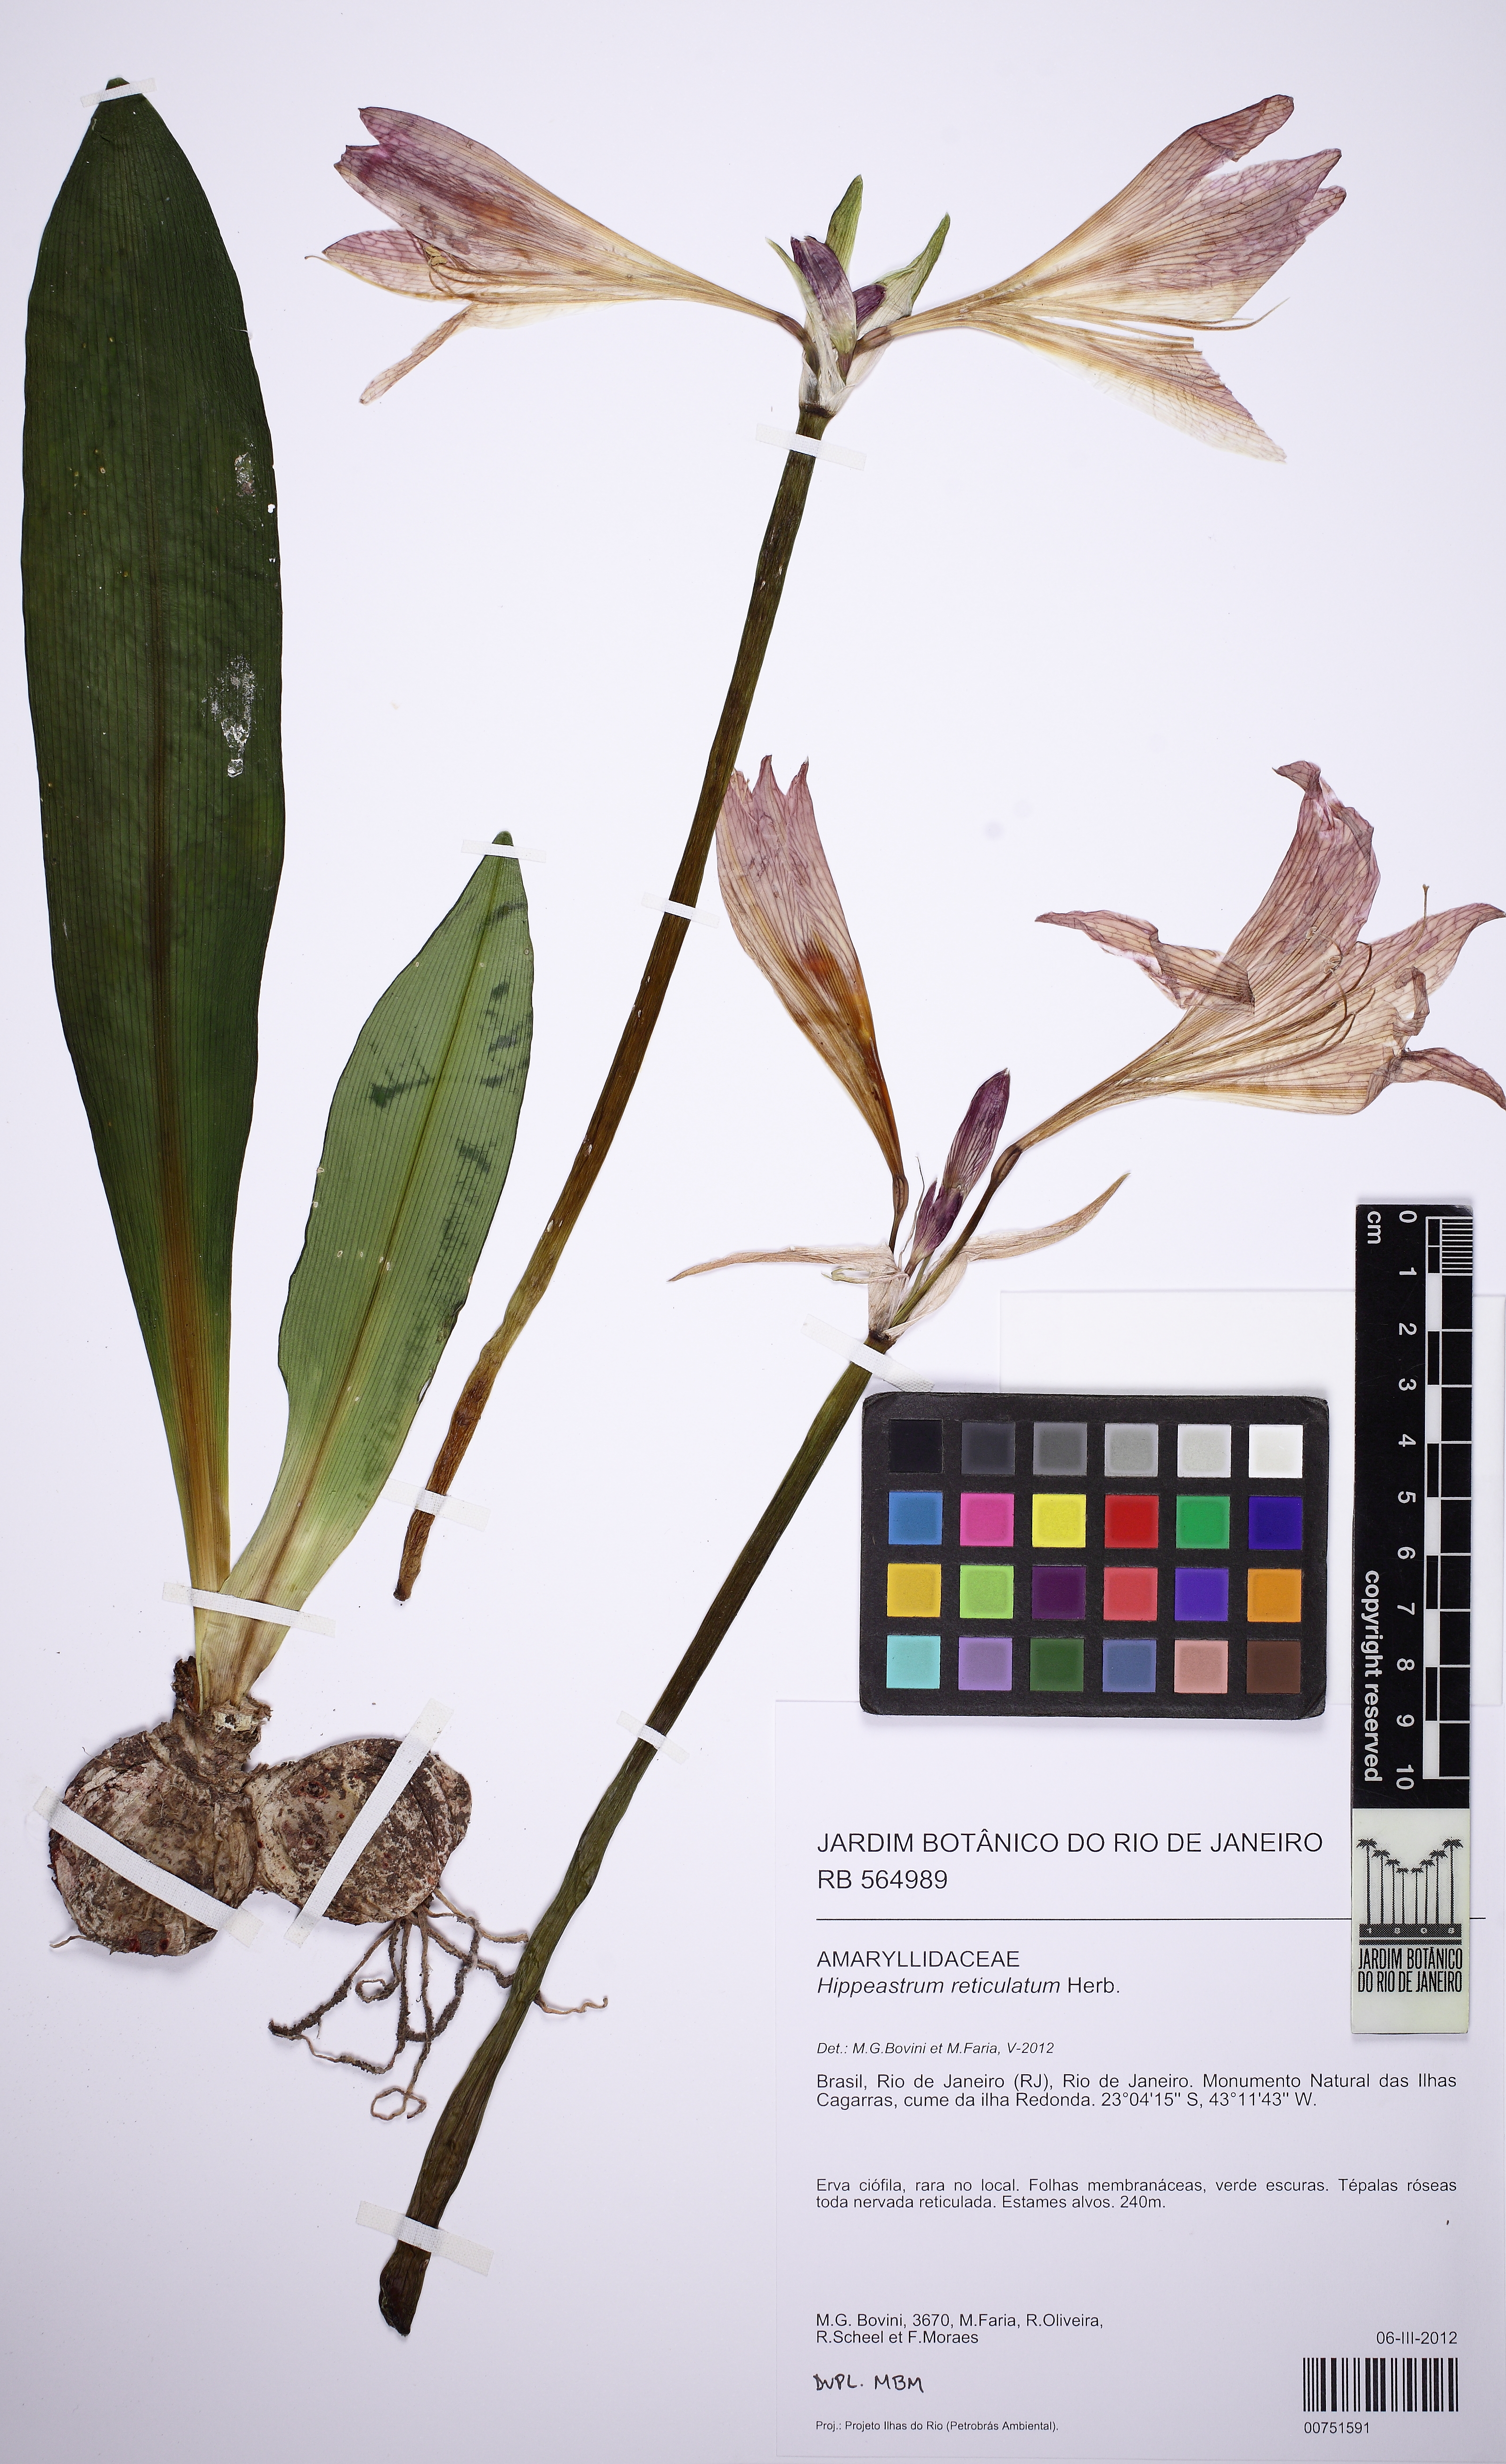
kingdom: Plantae
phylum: Tracheophyta
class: Liliopsida
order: Asparagales
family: Amaryllidaceae
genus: Hippeastrum
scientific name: Hippeastrum reticulatum
